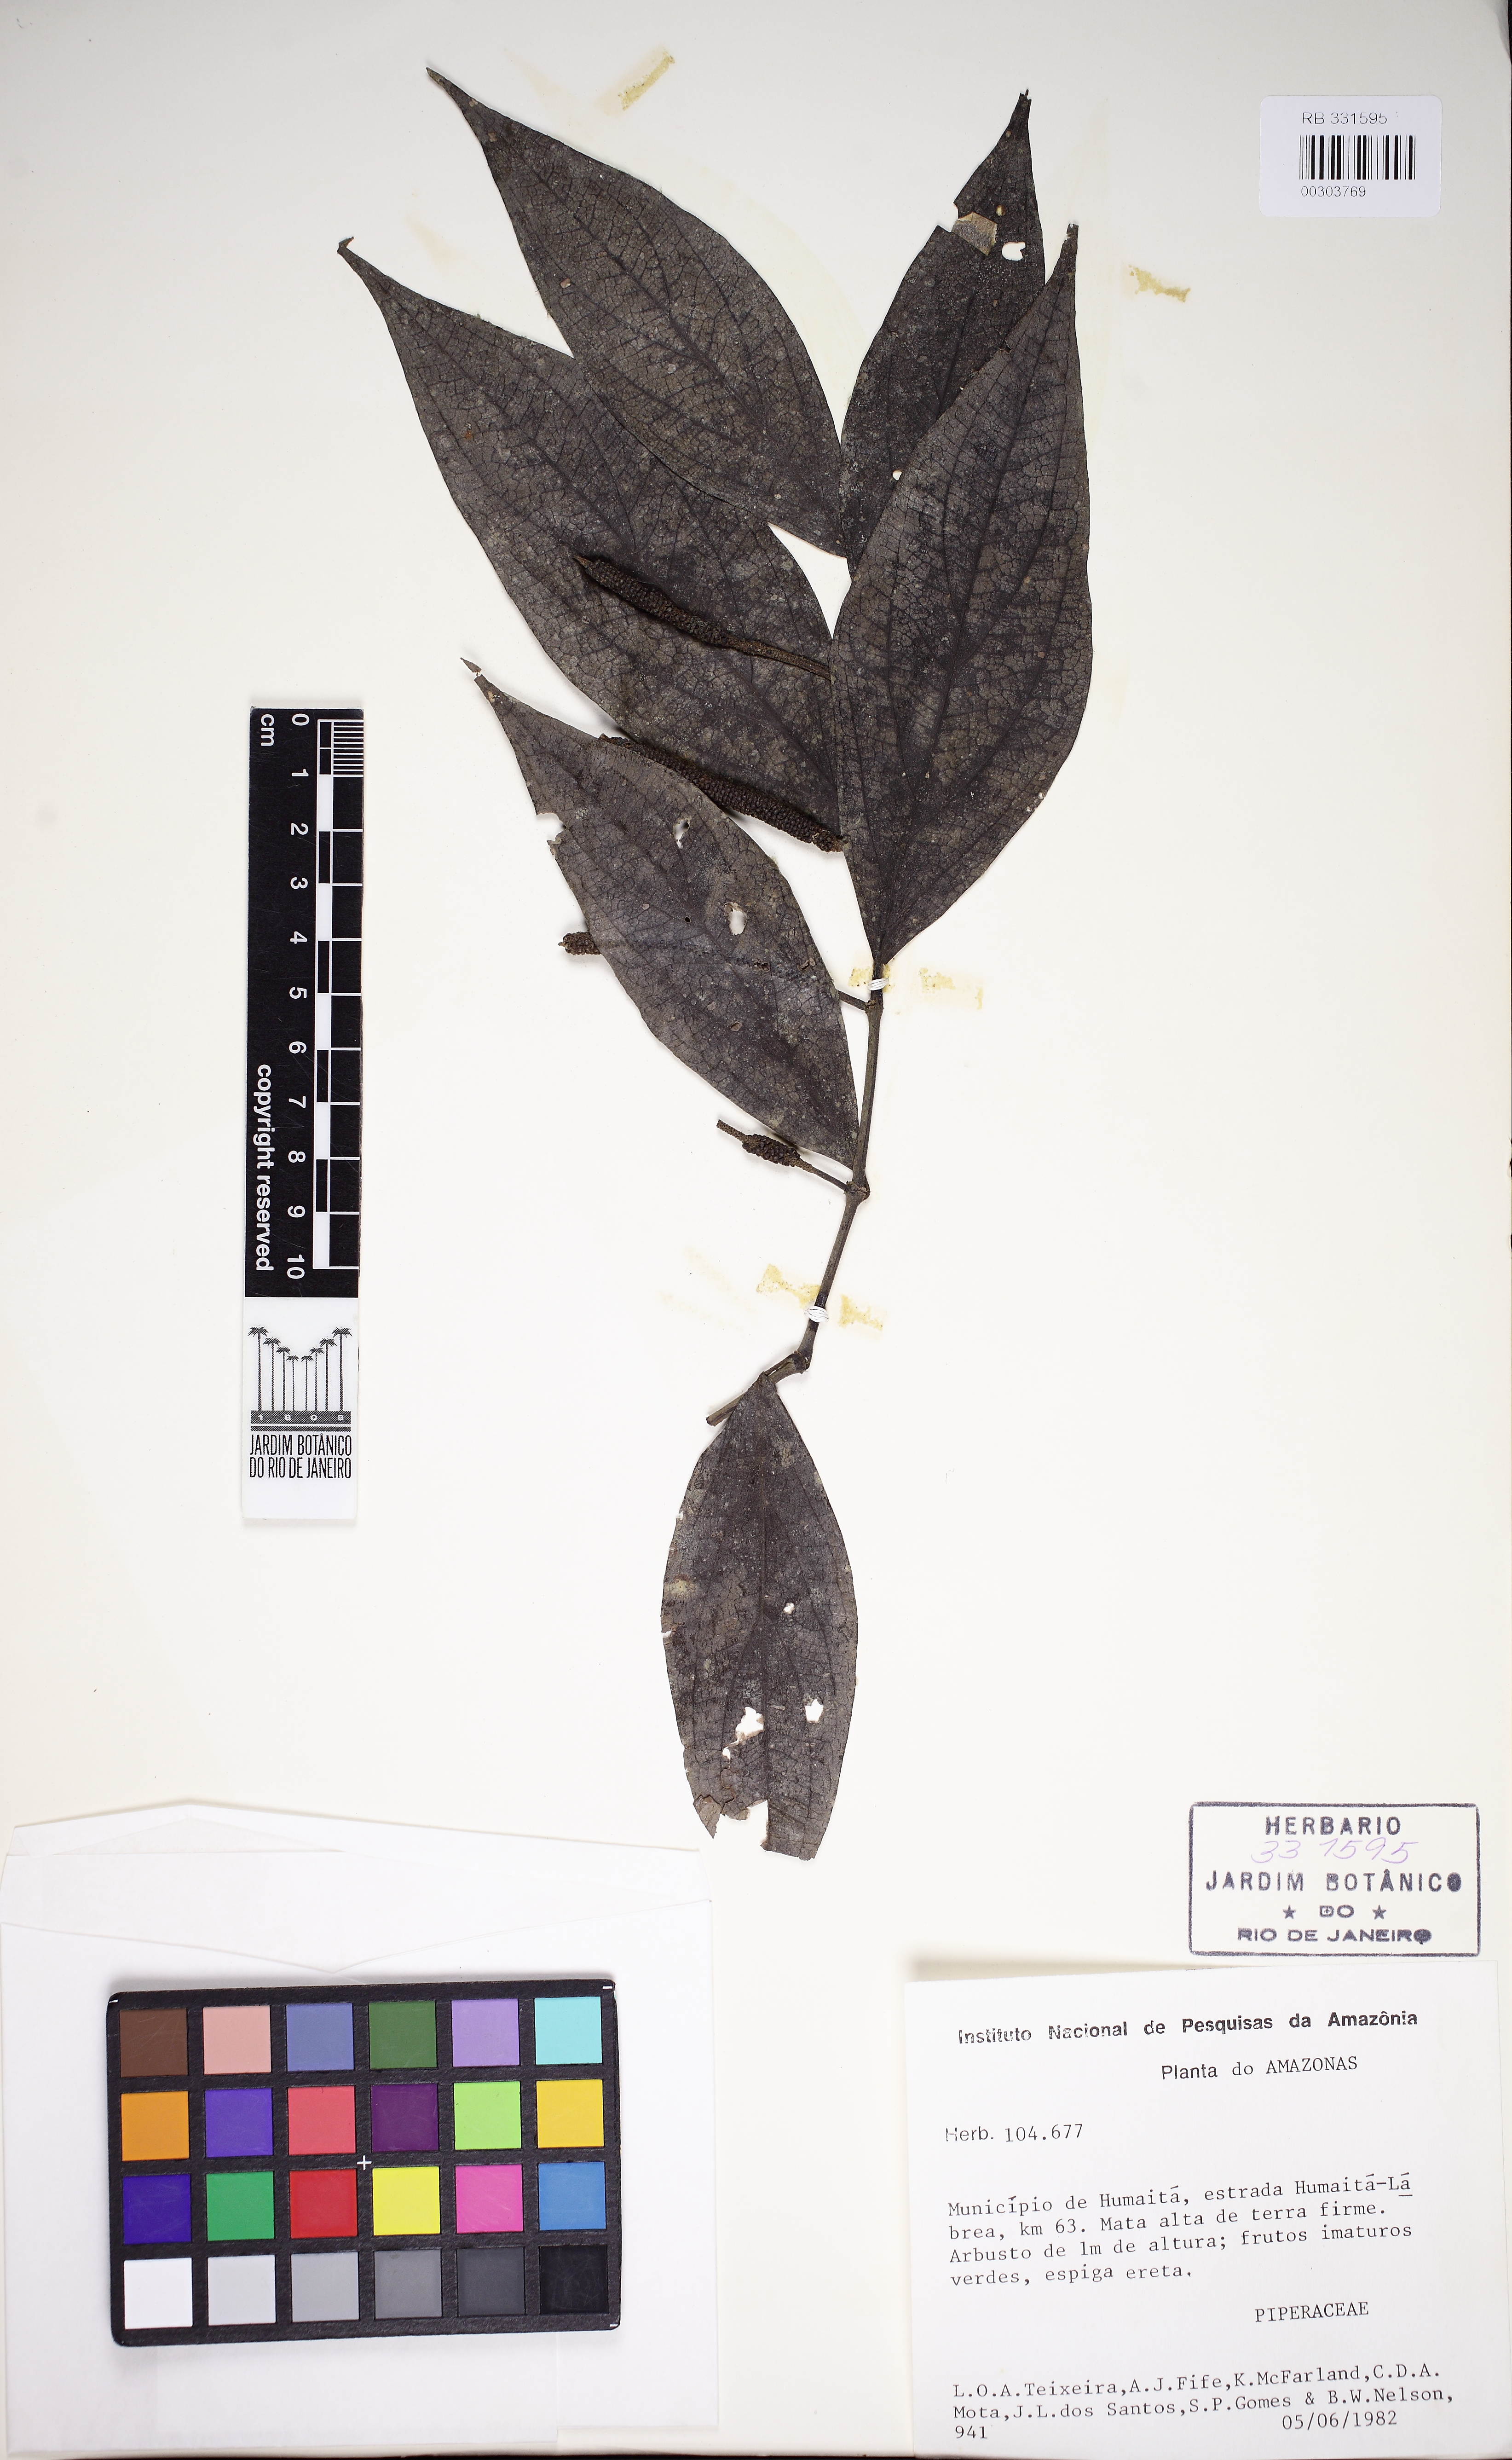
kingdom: Plantae
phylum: Tracheophyta
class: Magnoliopsida
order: Piperales
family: Piperaceae
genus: Peperomia
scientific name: Peperomia
